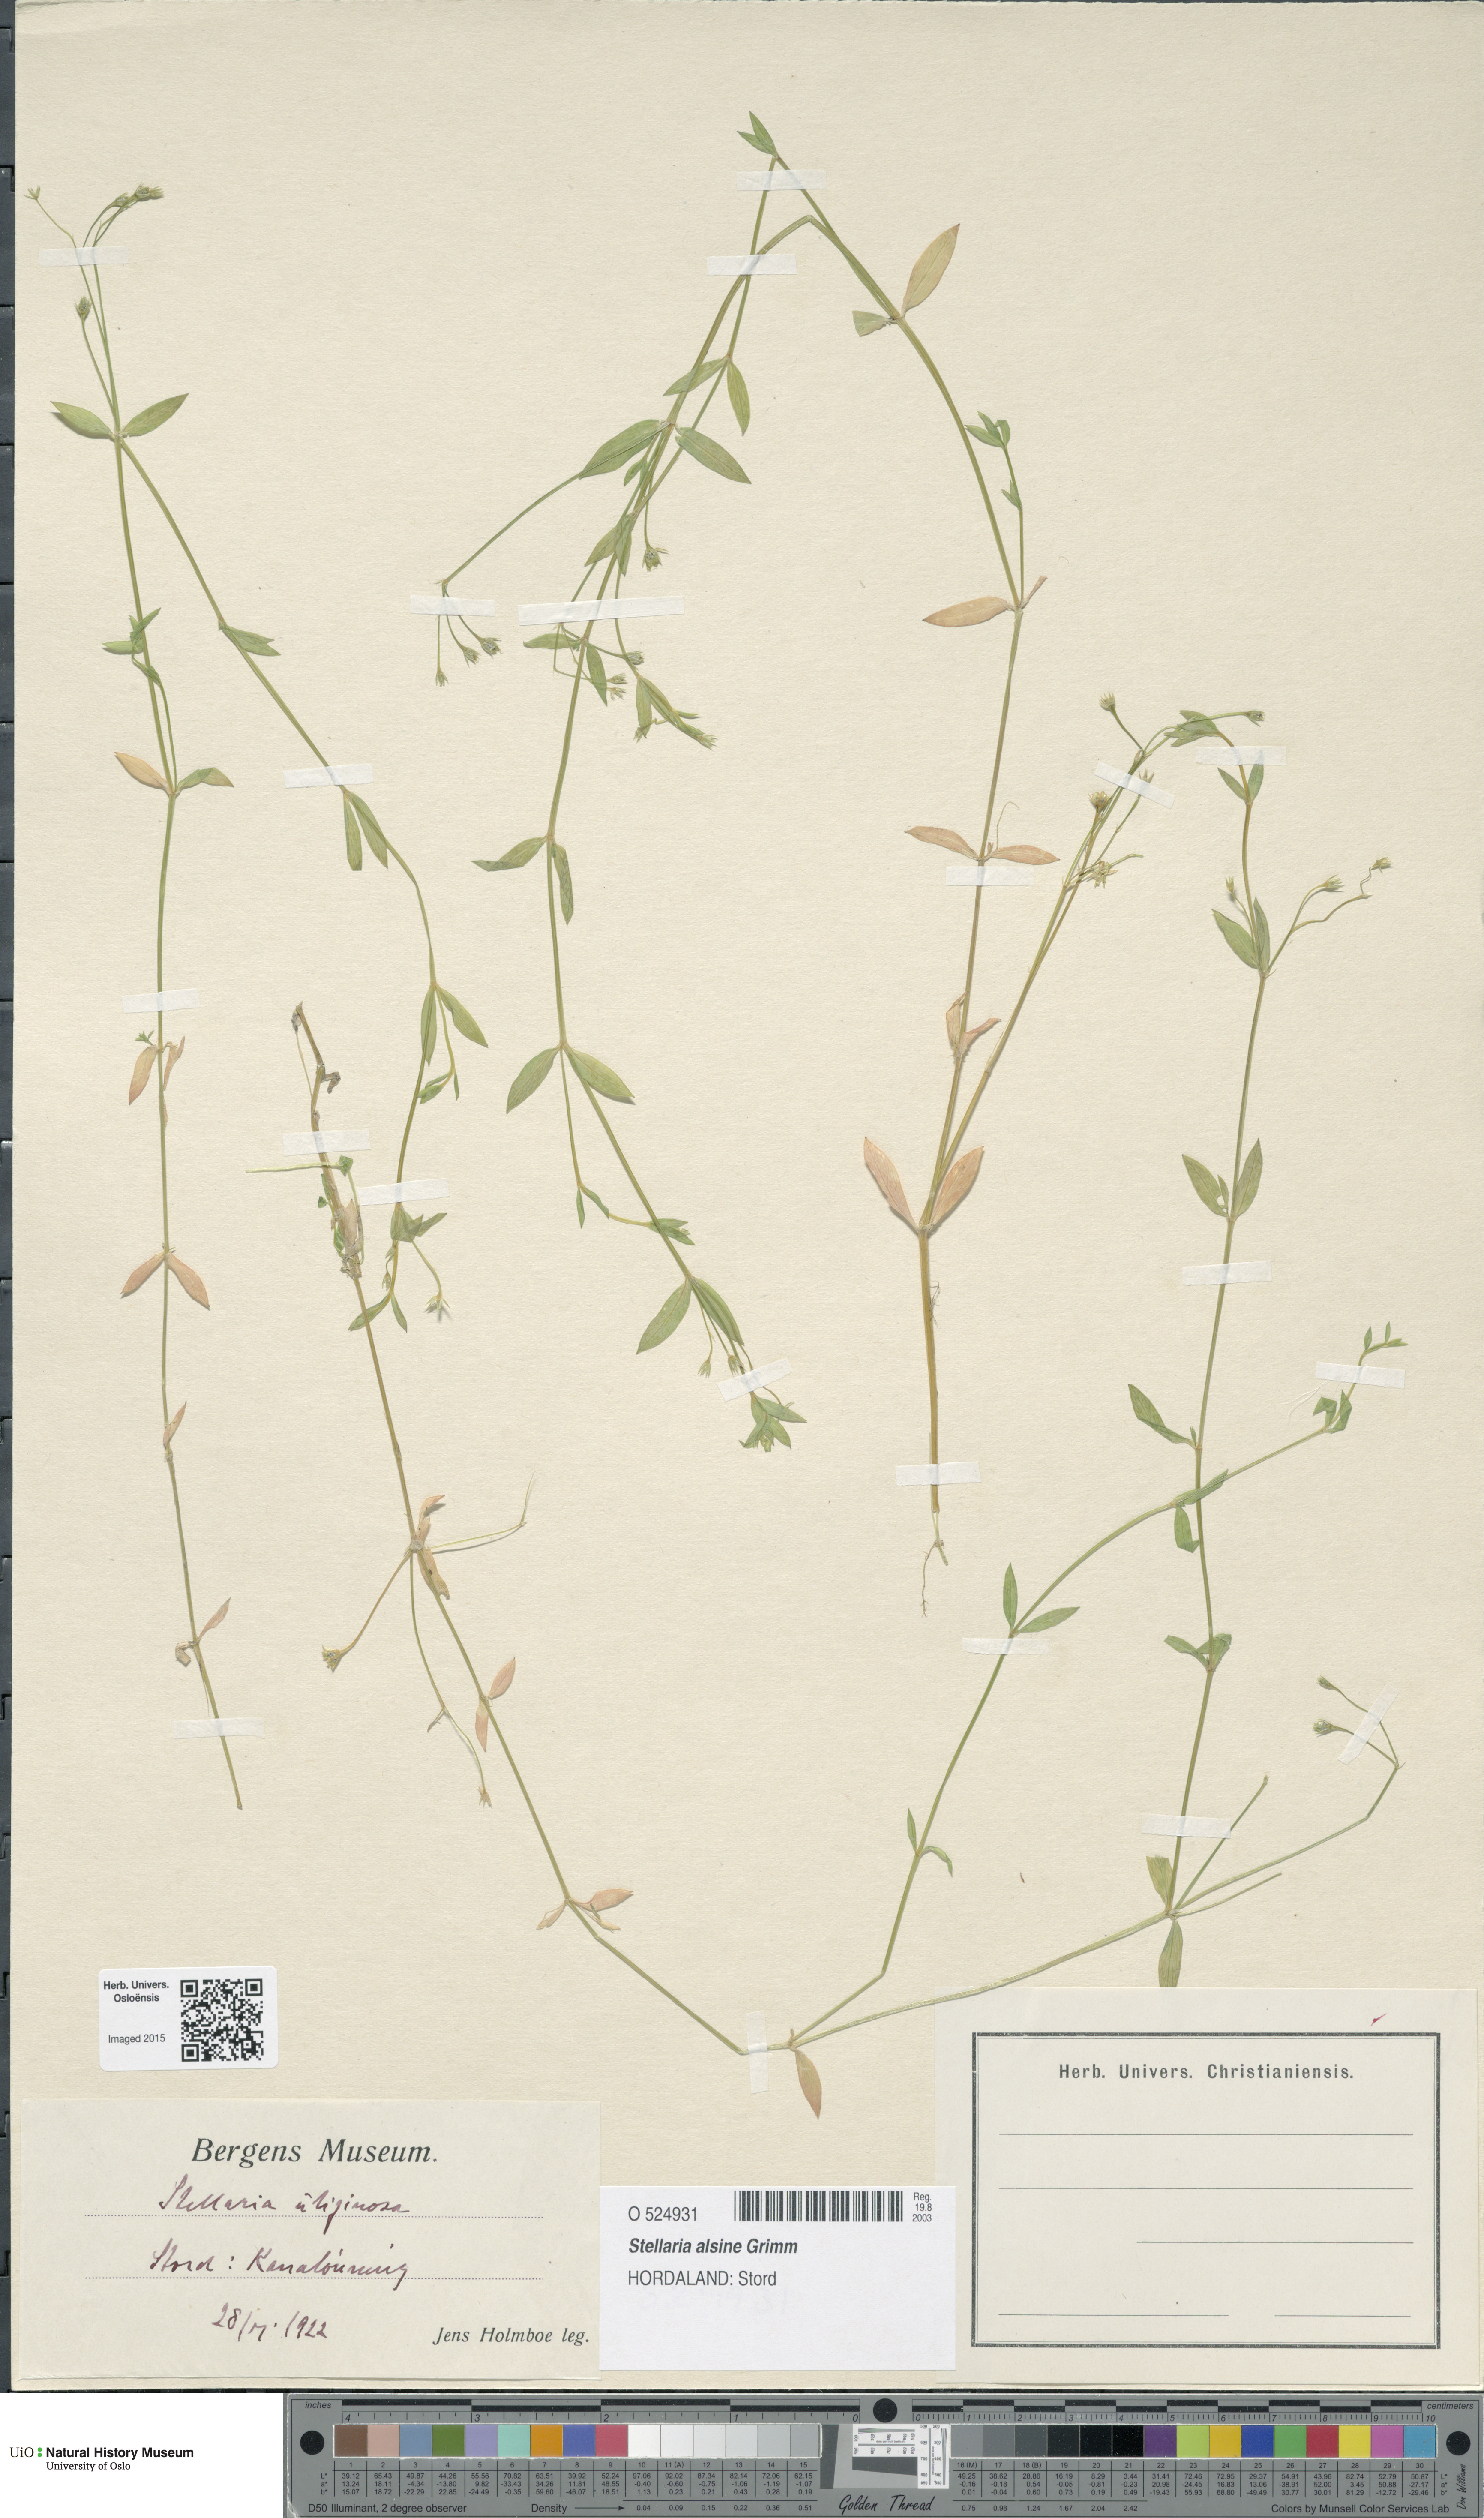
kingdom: Plantae
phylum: Tracheophyta
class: Magnoliopsida
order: Caryophyllales
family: Caryophyllaceae
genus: Stellaria
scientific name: Stellaria alsine
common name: Bog stitchwort
